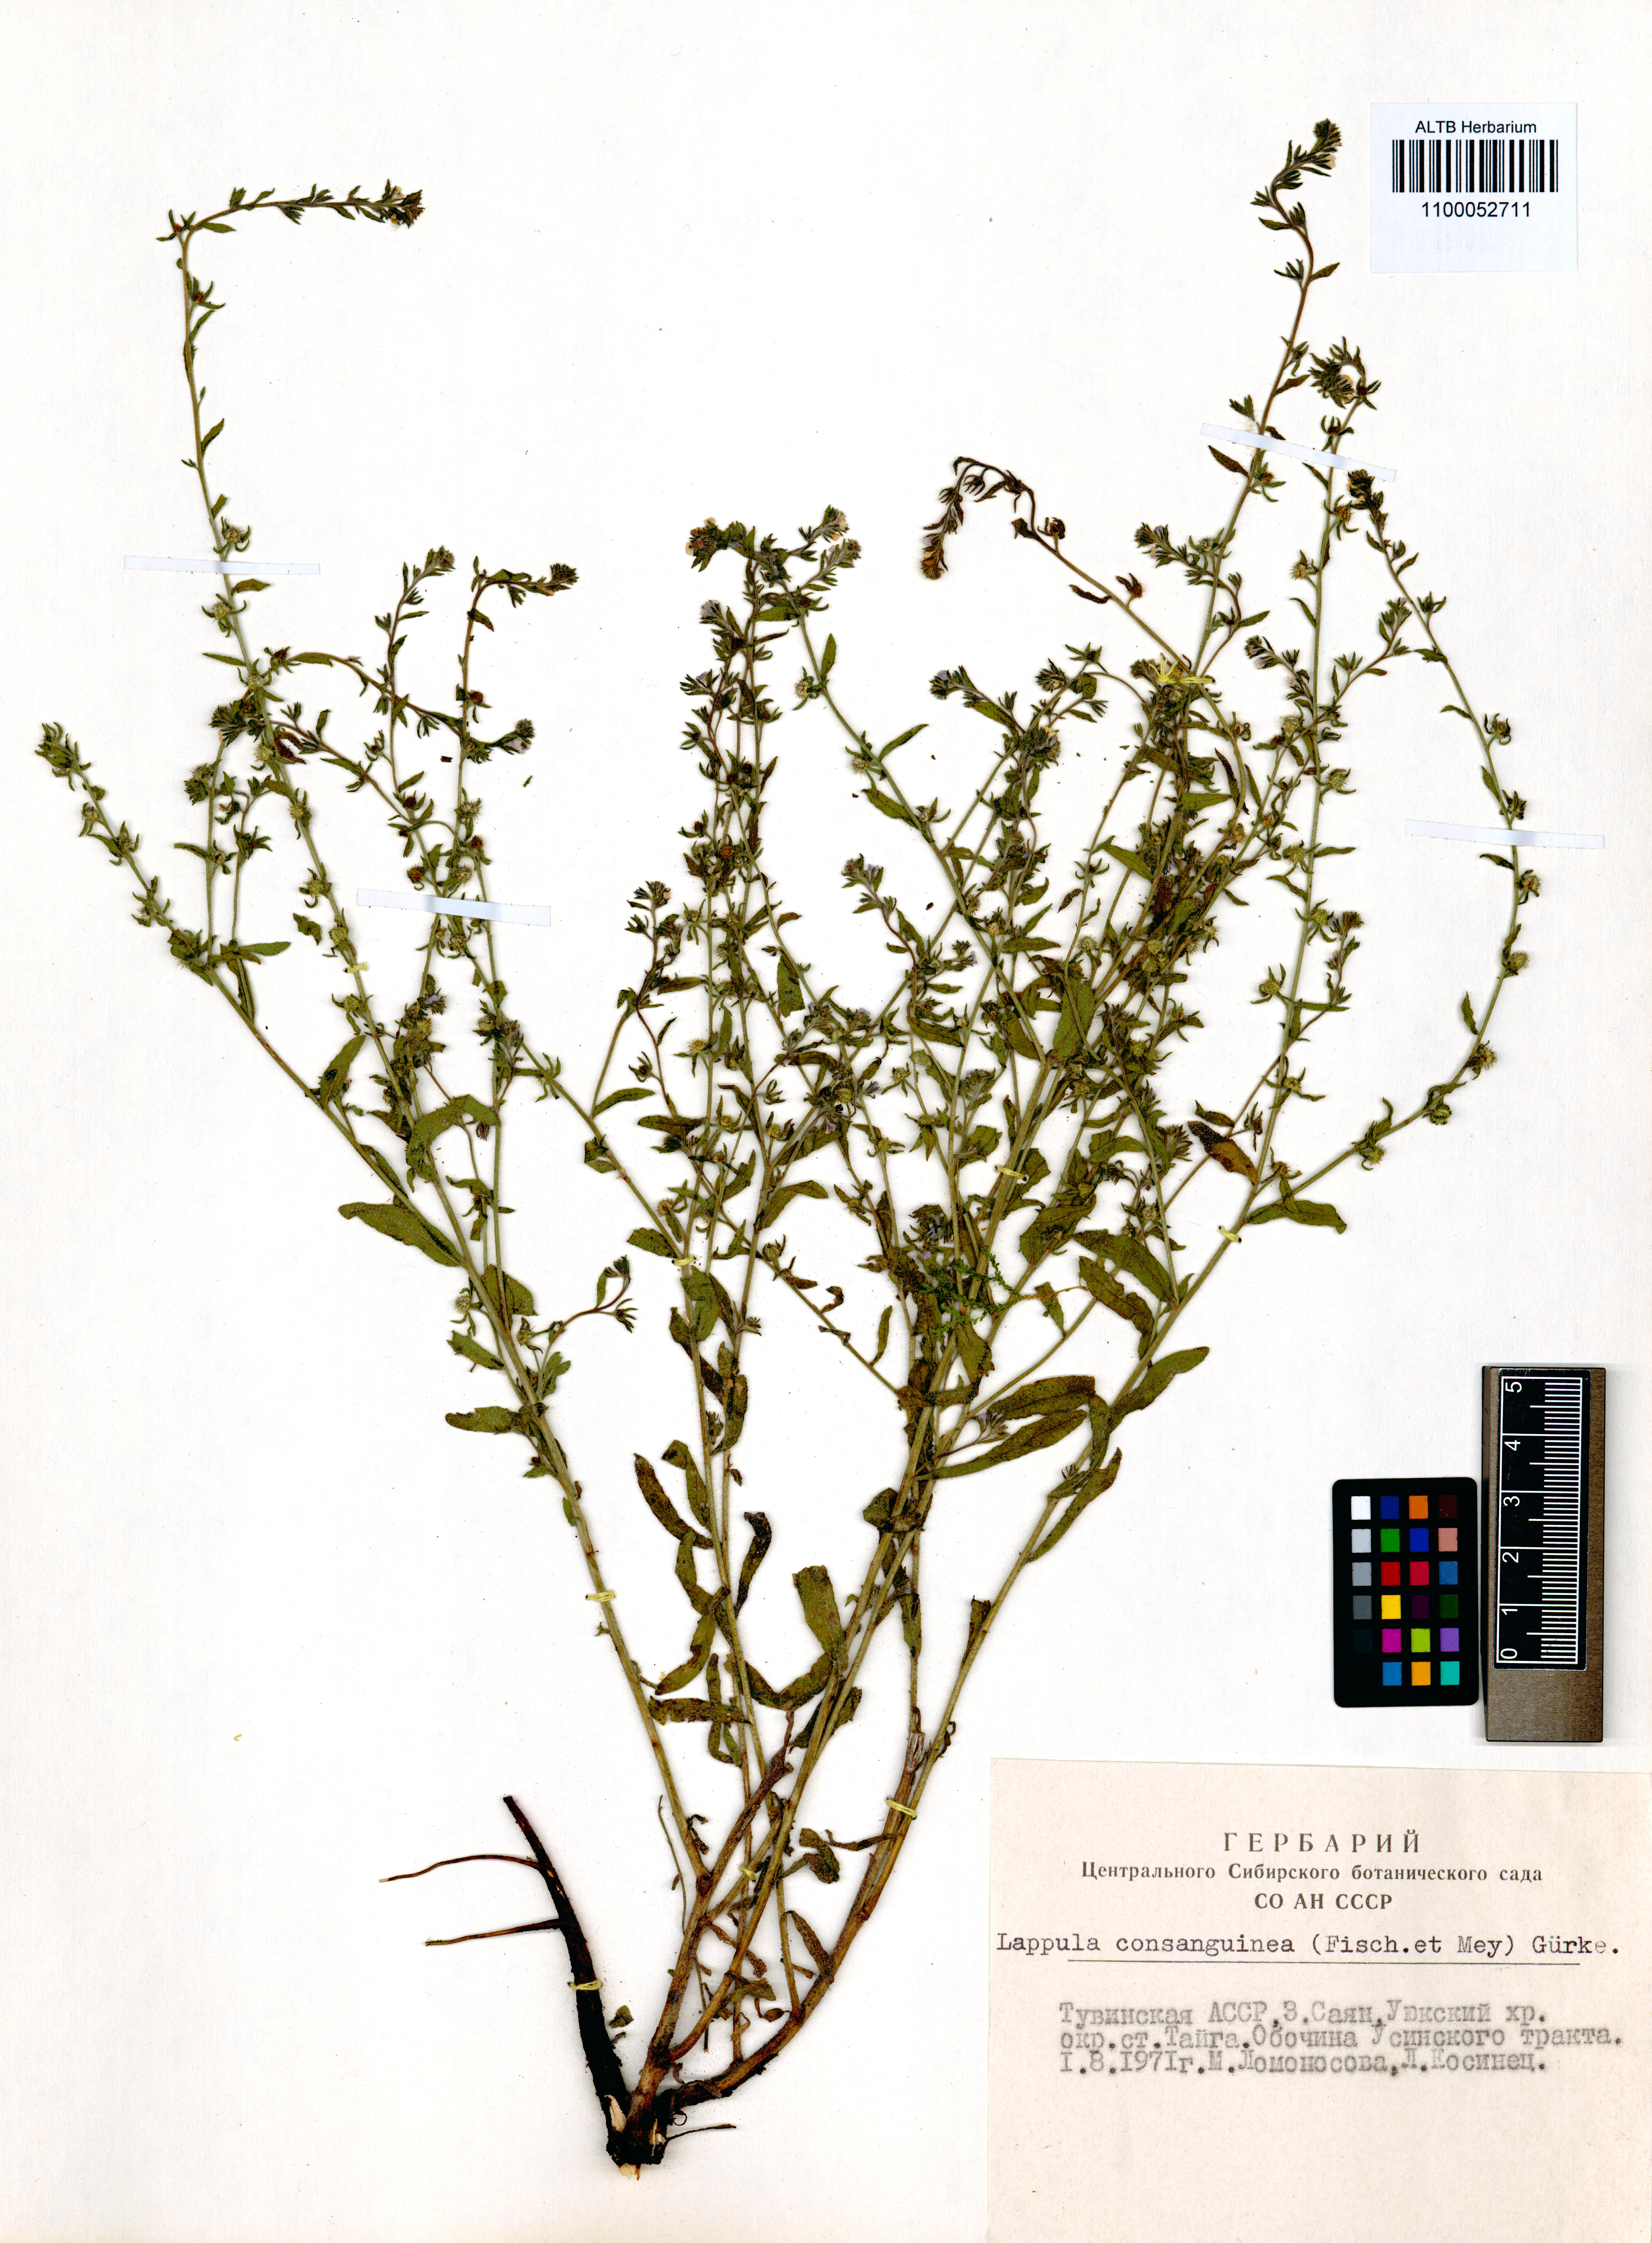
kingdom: Plantae
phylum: Tracheophyta
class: Magnoliopsida
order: Boraginales
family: Boraginaceae
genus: Lappula
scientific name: Lappula squarrosa
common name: European stickseed
